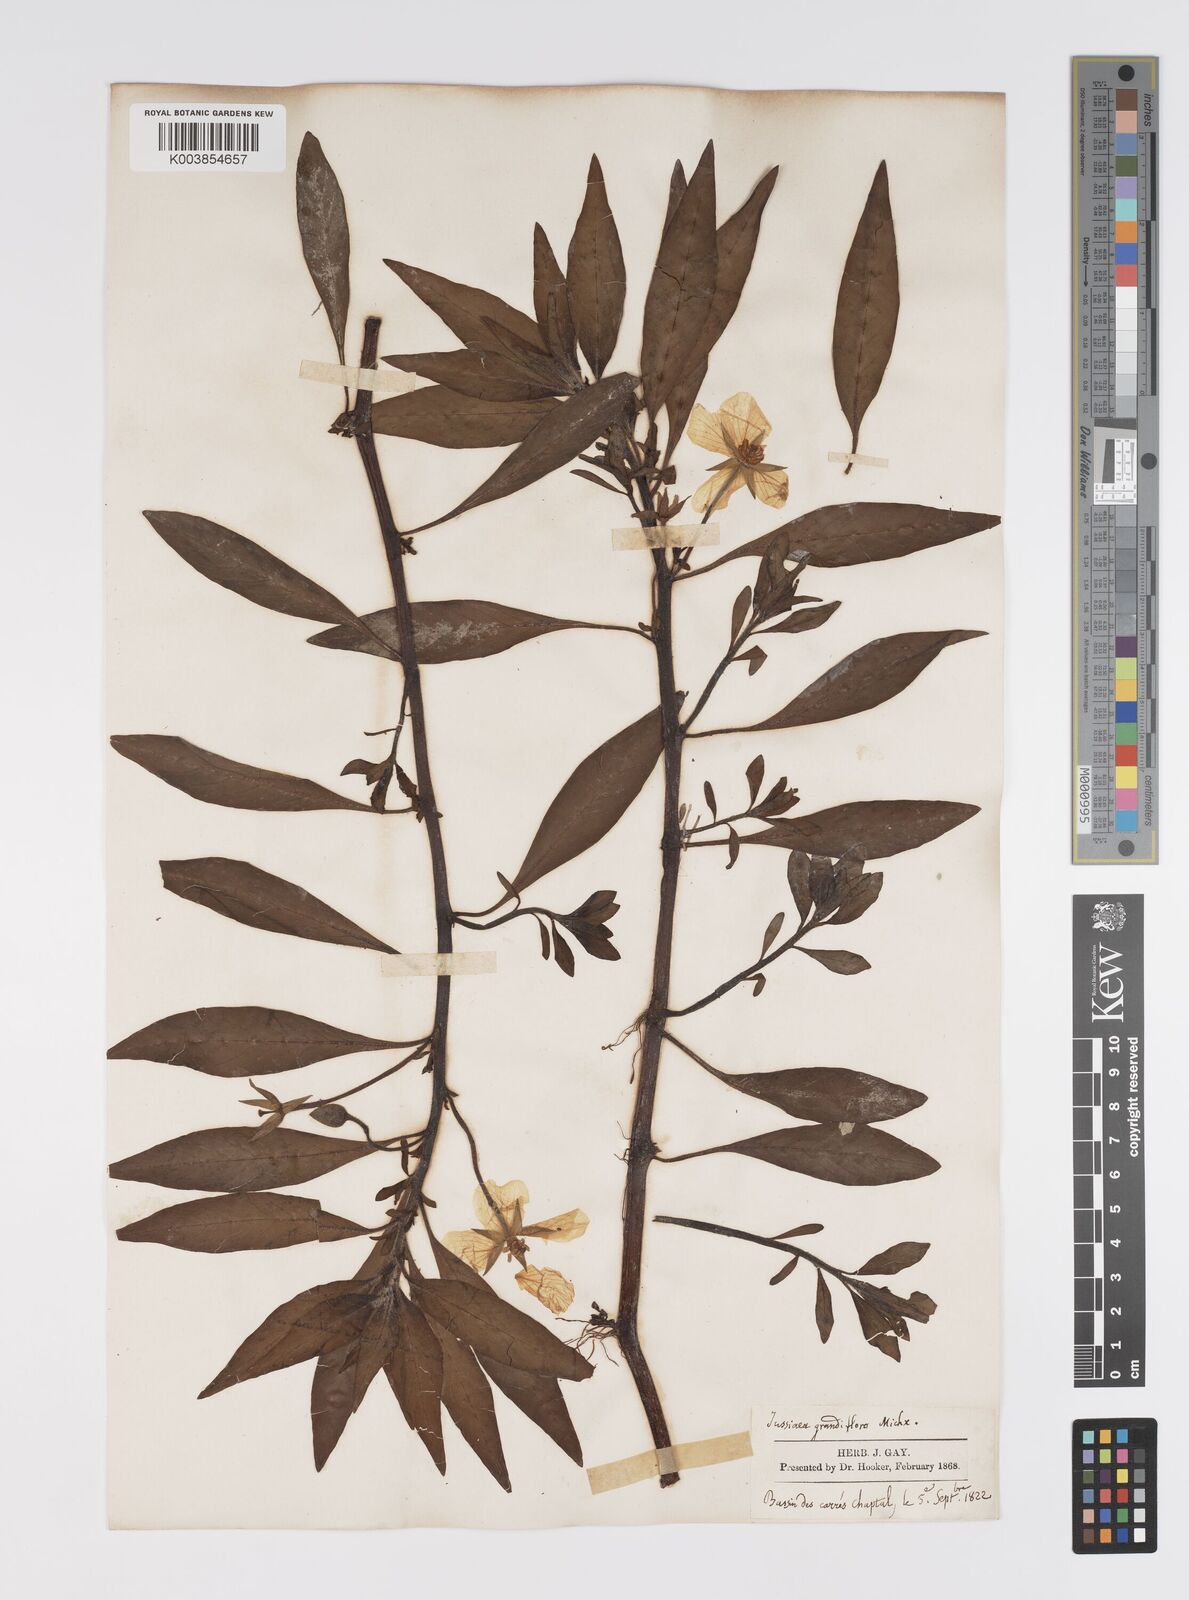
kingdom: Plantae
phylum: Tracheophyta
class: Magnoliopsida
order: Myrtales
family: Onagraceae
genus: Ludwigia
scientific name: Ludwigia
